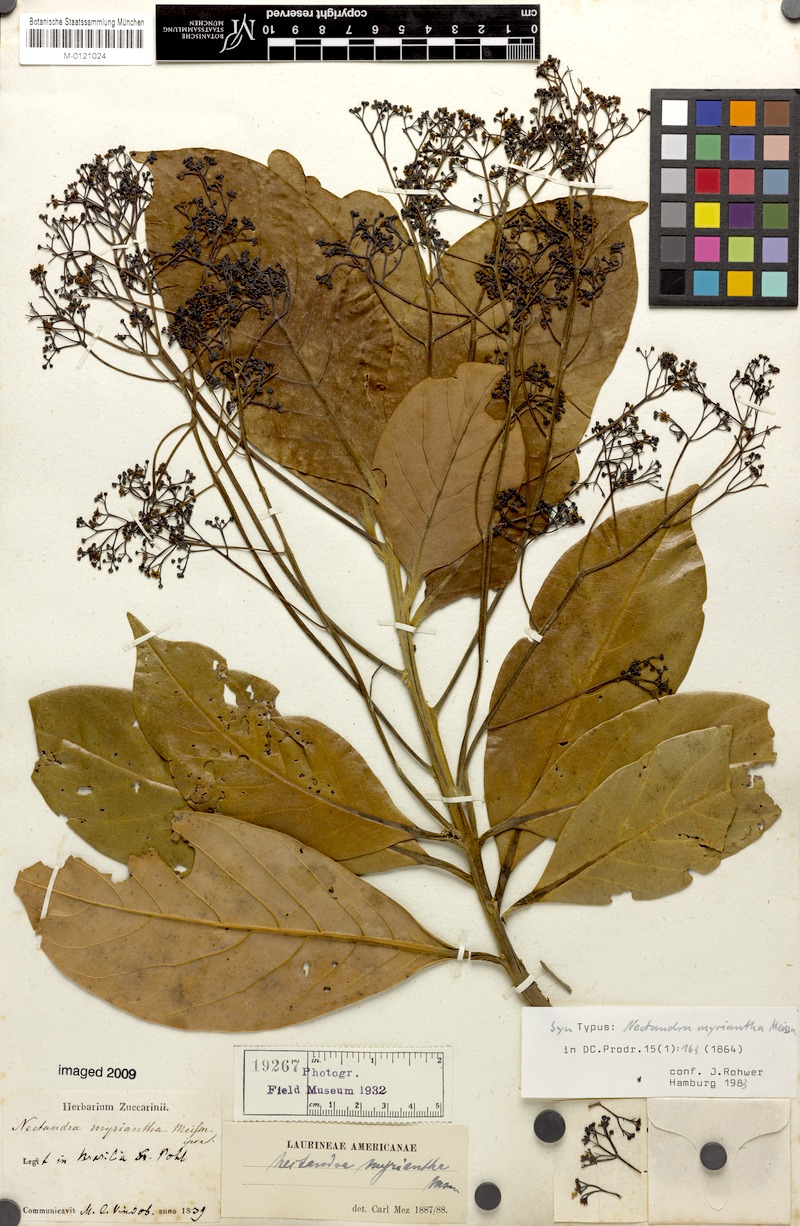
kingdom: Plantae
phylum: Tracheophyta
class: Magnoliopsida
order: Laurales
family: Lauraceae
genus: Nectandra
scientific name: Nectandra cissiflora
